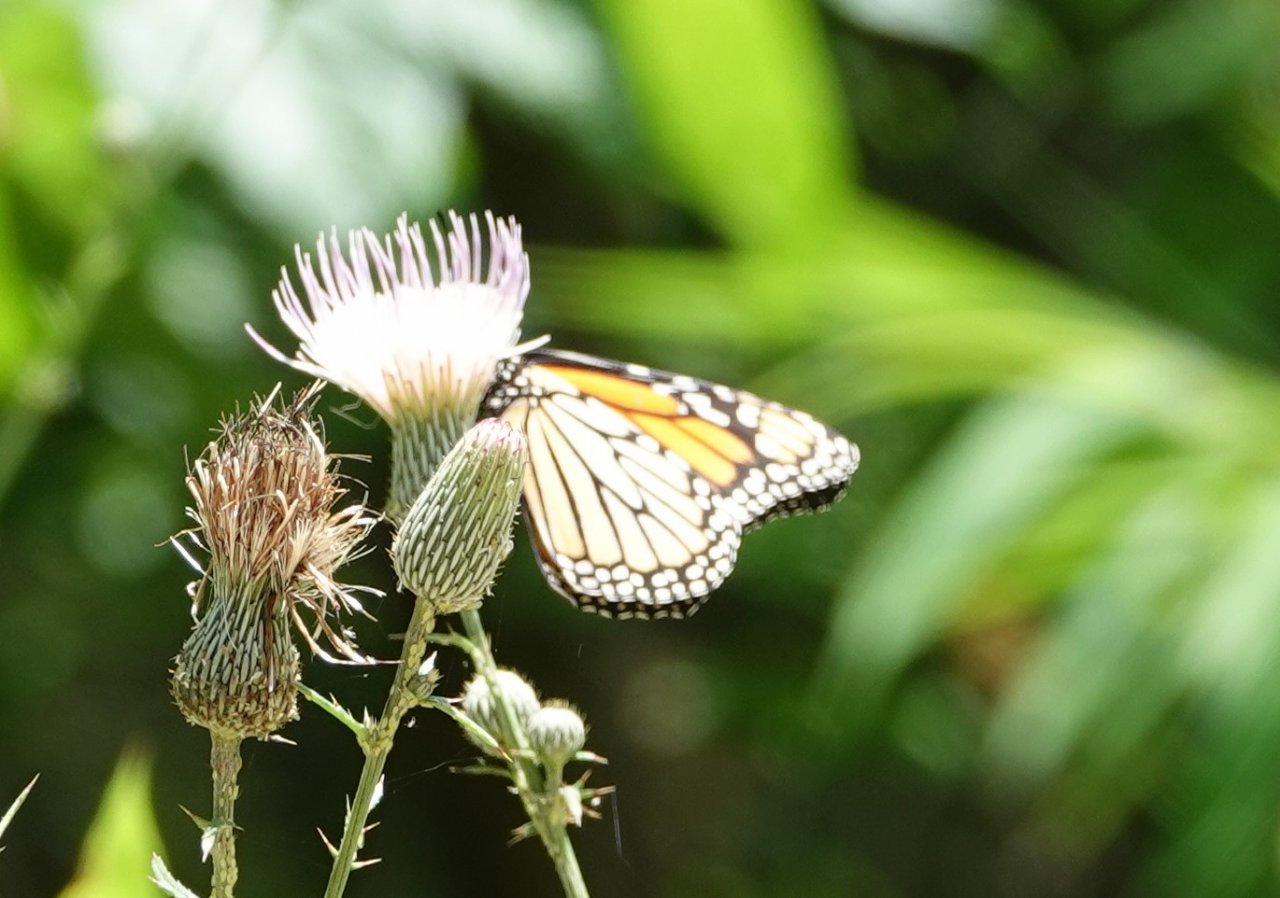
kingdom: Animalia
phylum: Arthropoda
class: Insecta
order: Lepidoptera
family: Nymphalidae
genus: Danaus
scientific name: Danaus plexippus
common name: Monarch
